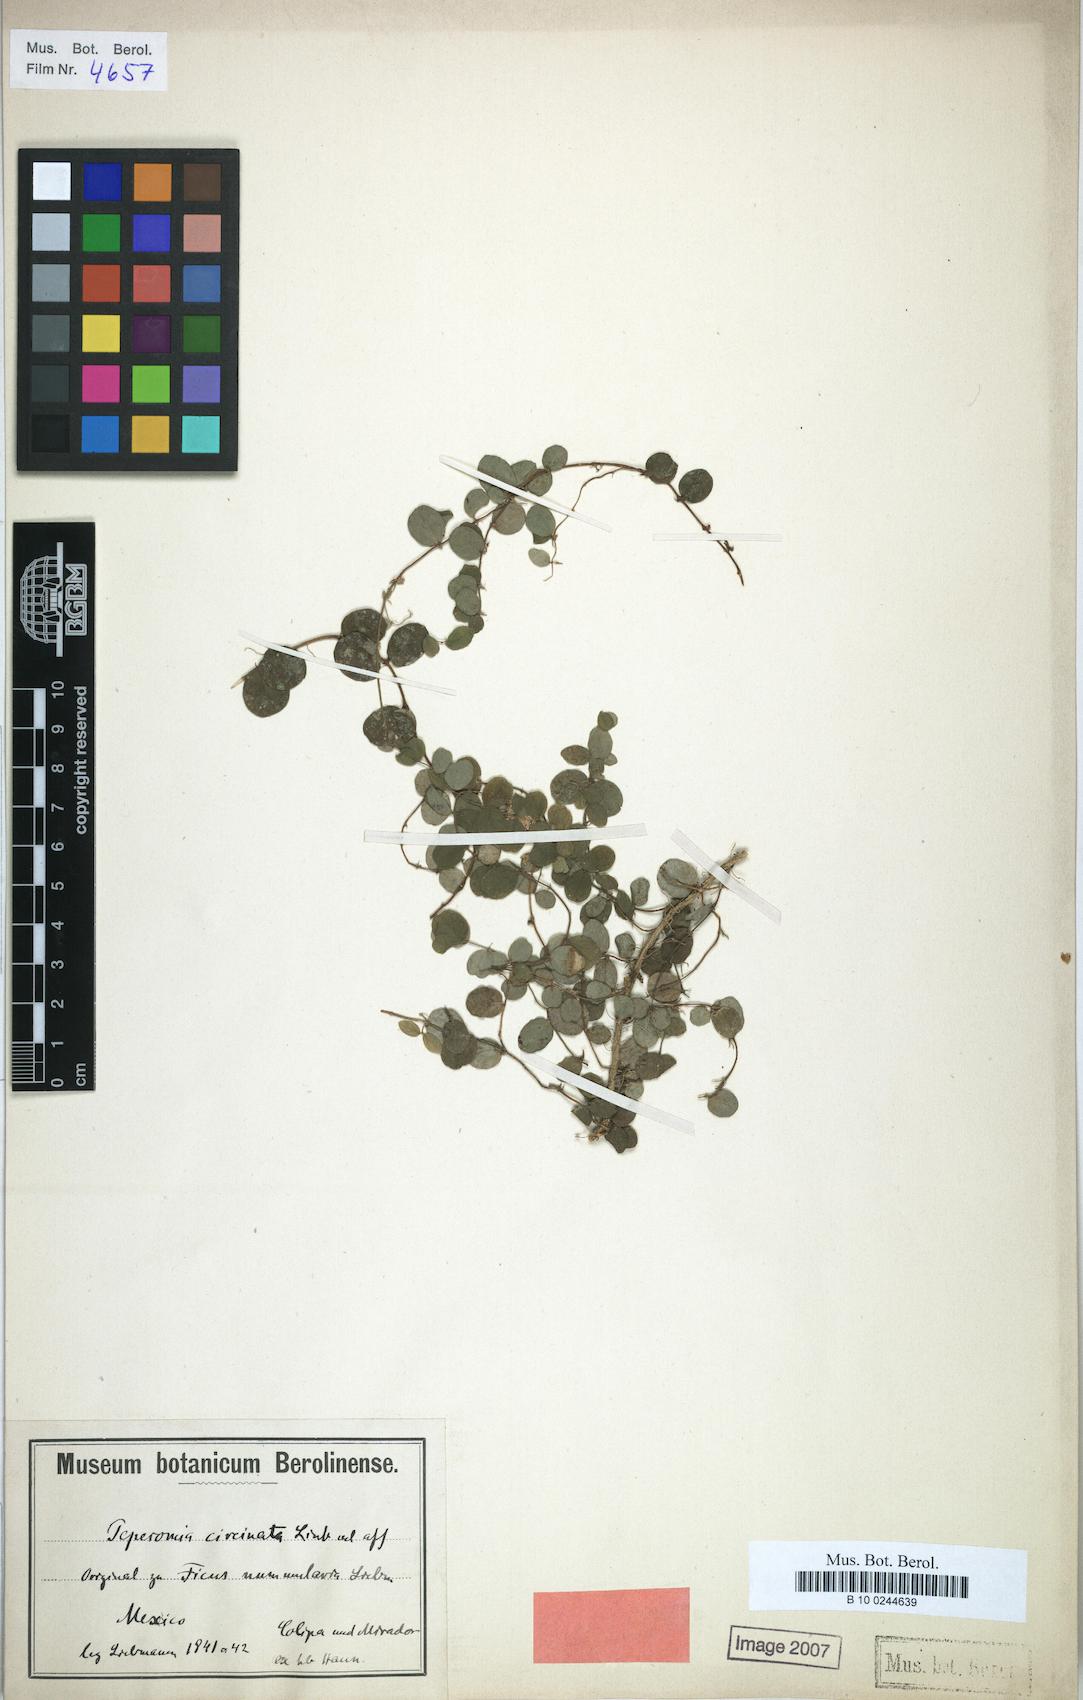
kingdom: Plantae
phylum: Tracheophyta
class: Magnoliopsida
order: Rosales
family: Moraceae
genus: Ficus
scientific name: Ficus
